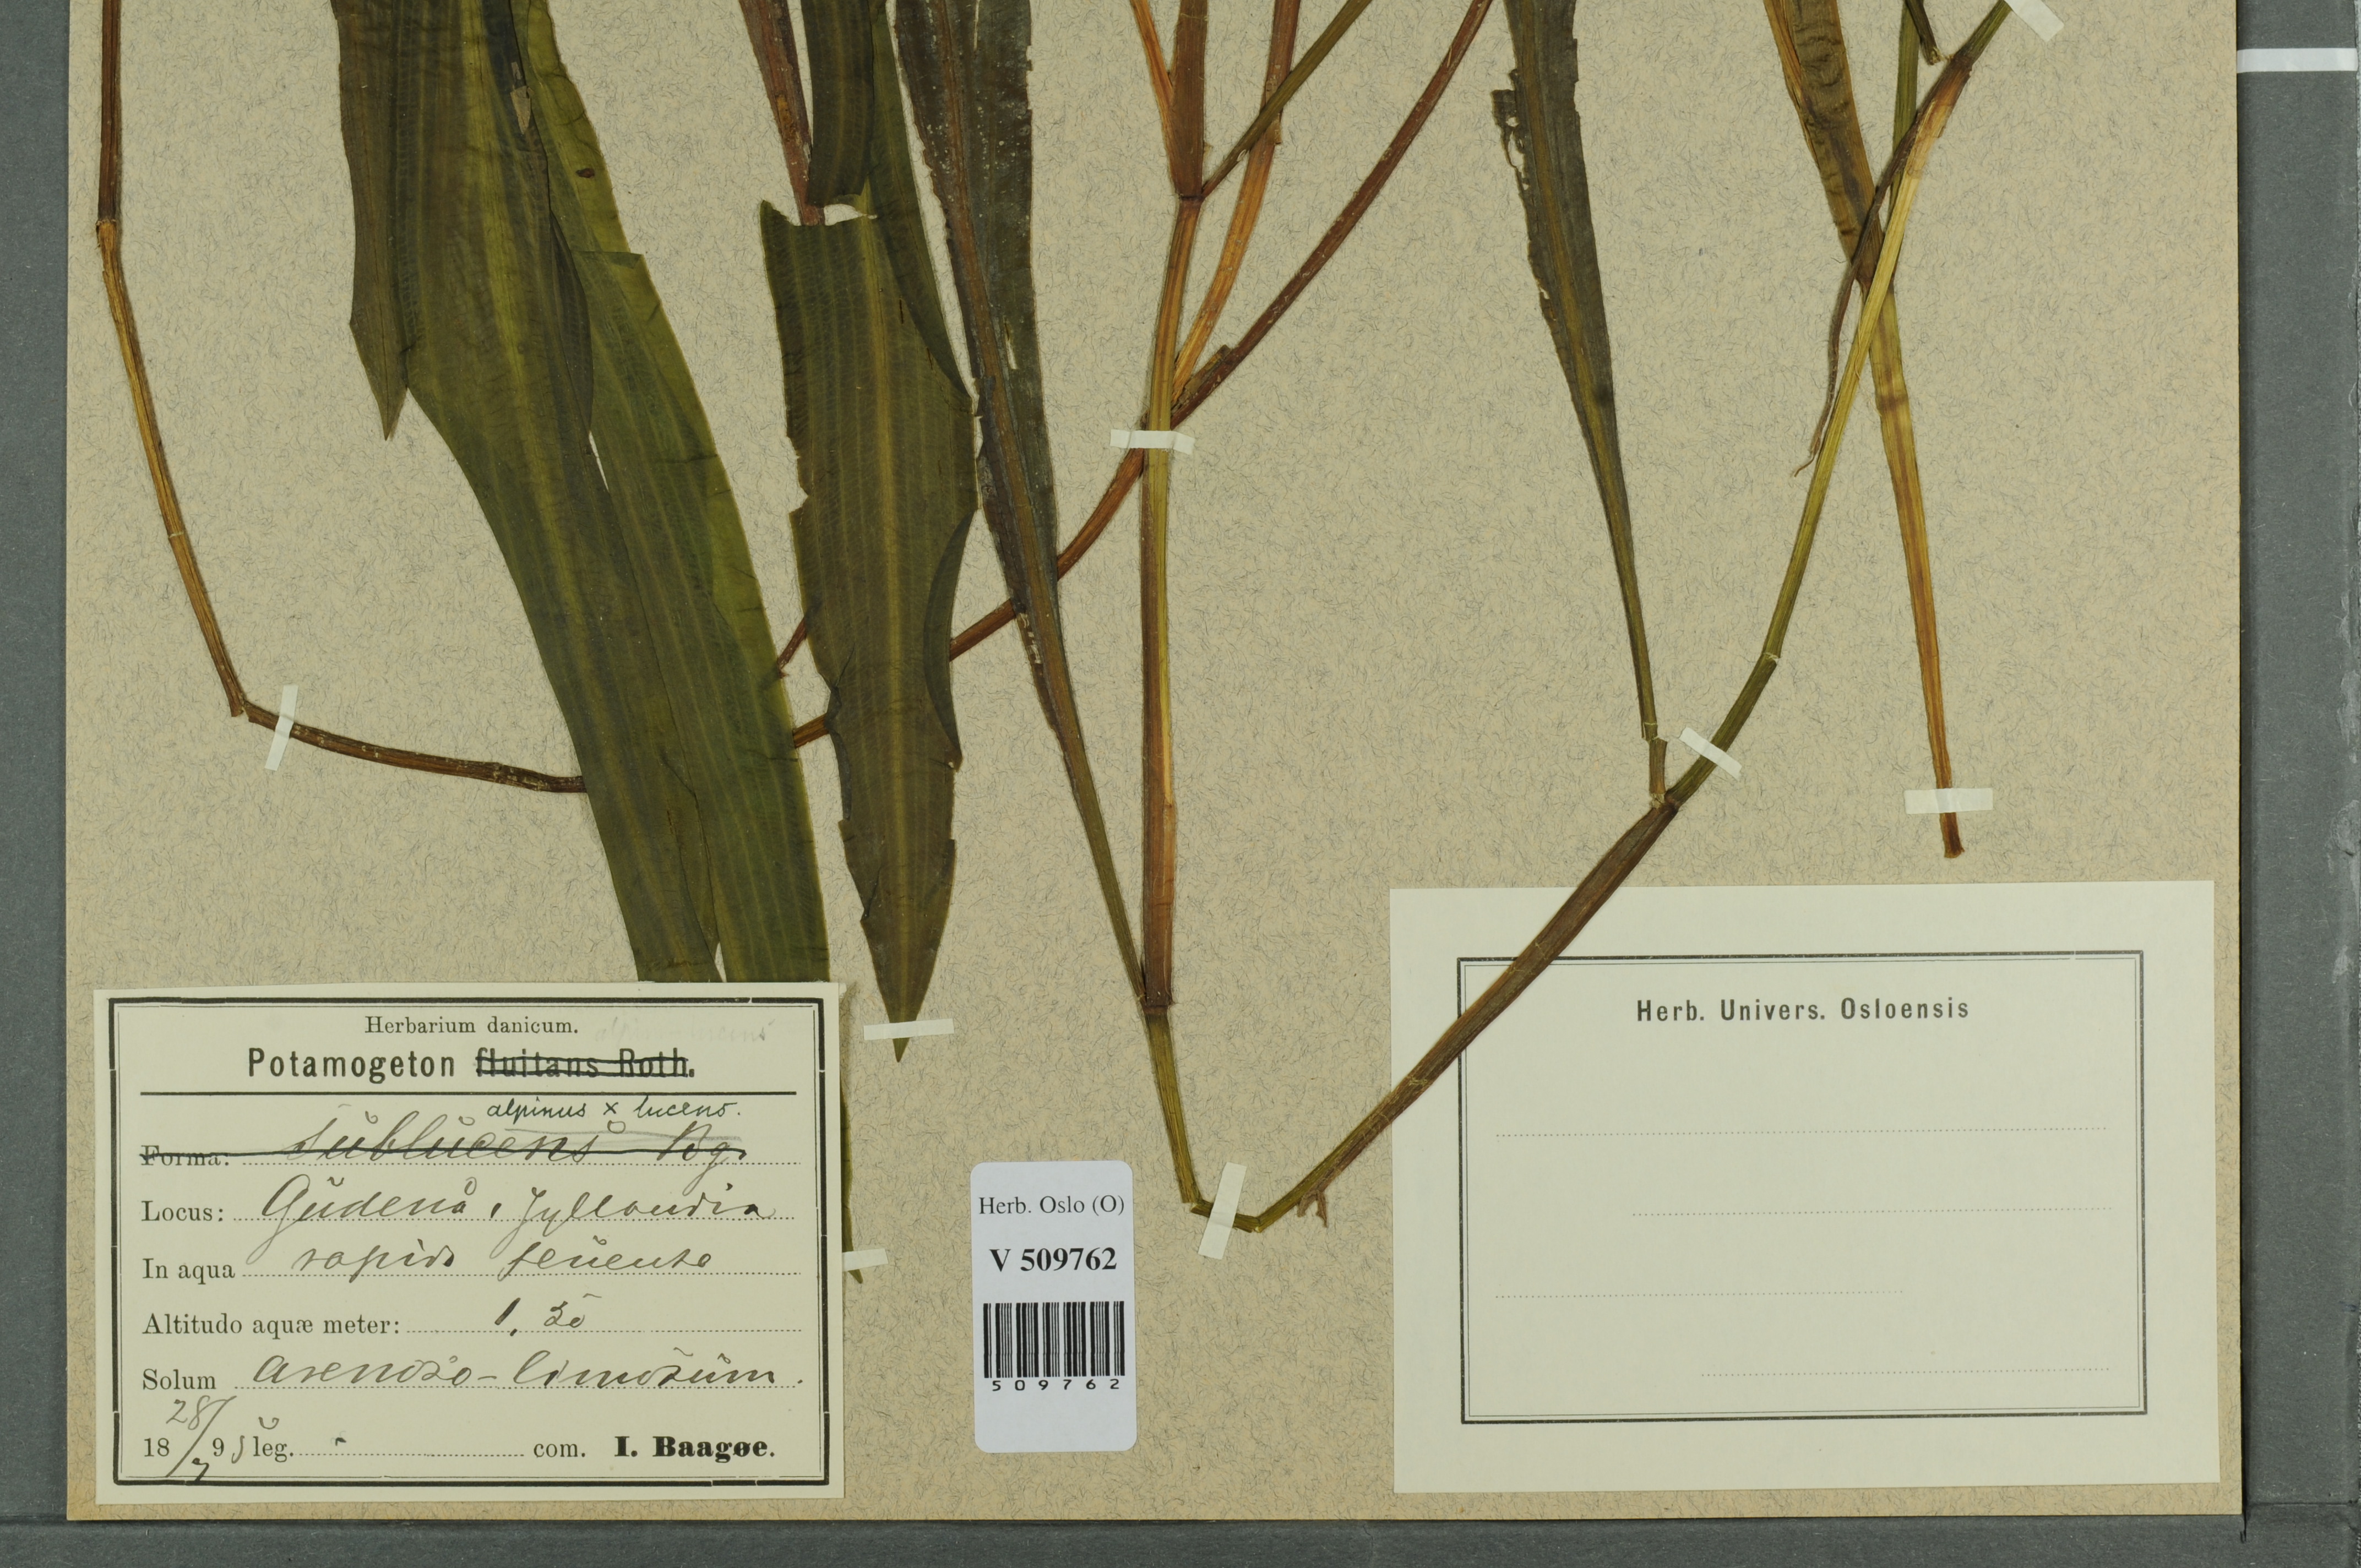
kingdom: Plantae
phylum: Tracheophyta
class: Liliopsida
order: Alismatales
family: Potamogetonaceae
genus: Potamogeton
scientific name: Potamogeton
